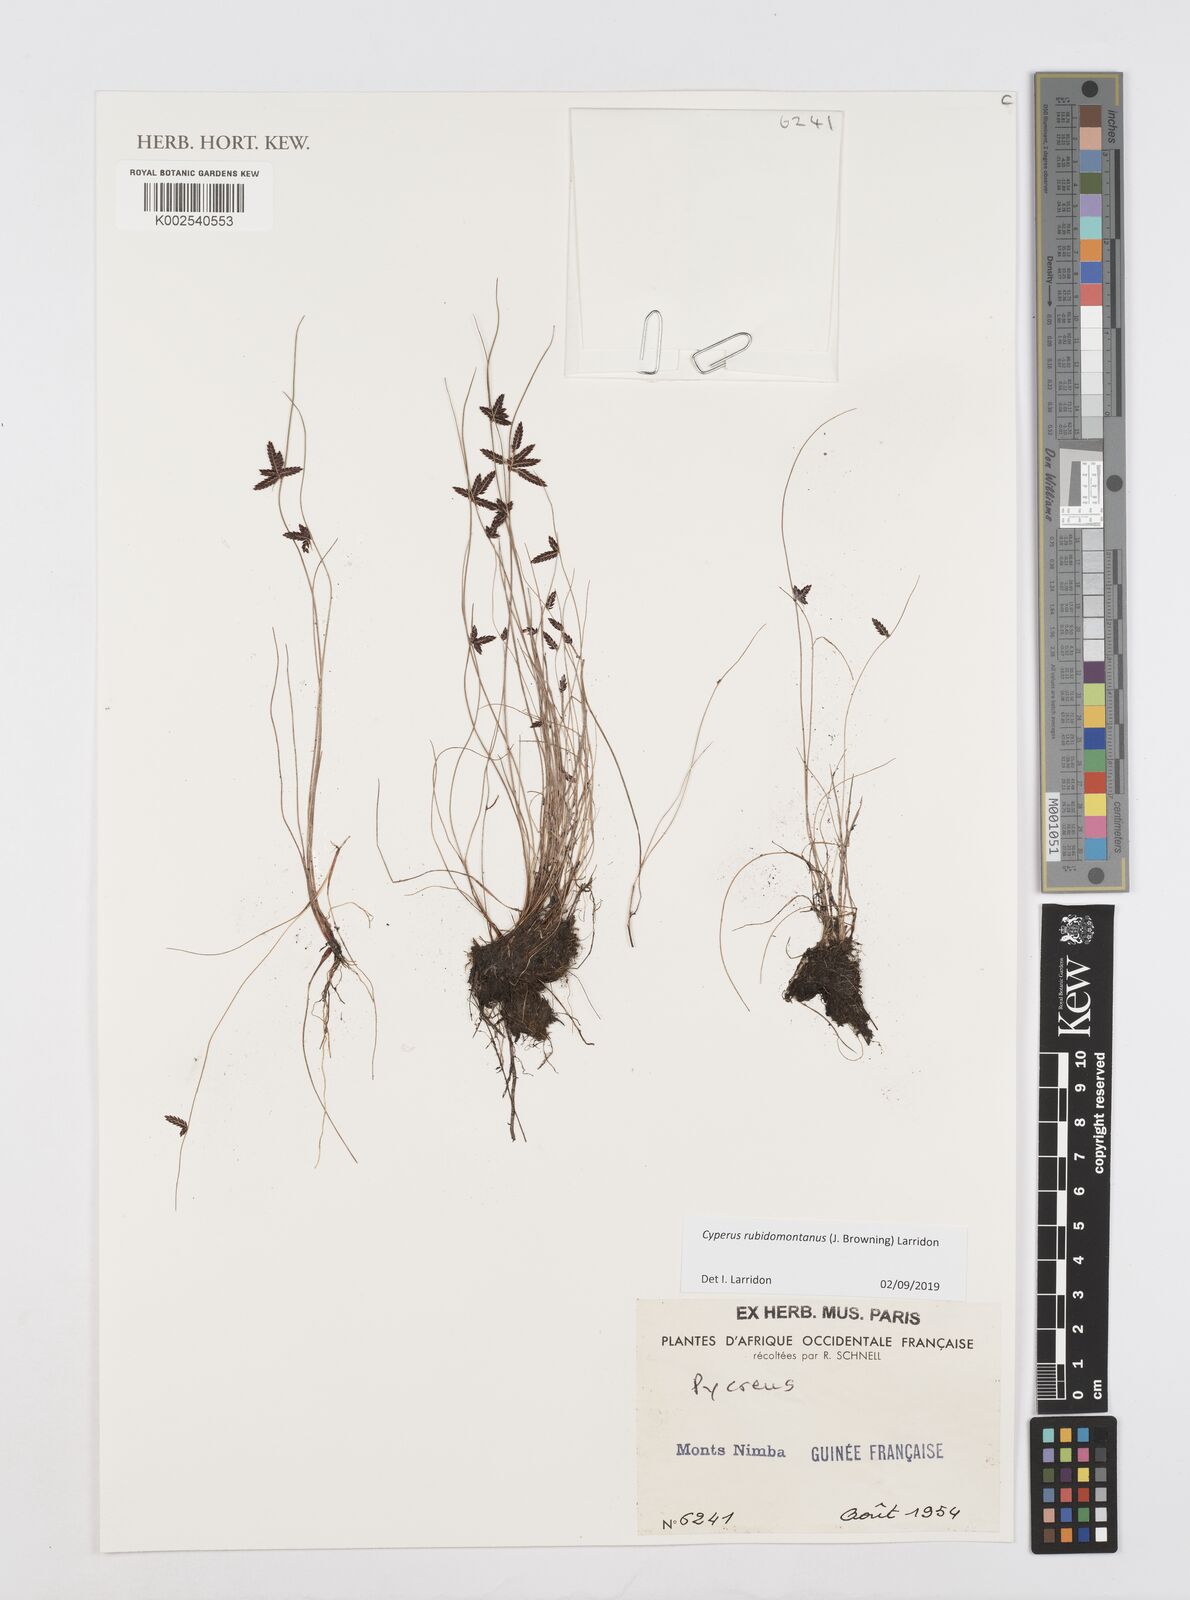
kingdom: Plantae
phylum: Tracheophyta
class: Liliopsida
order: Poales
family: Cyperaceae
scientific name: Cyperaceae
